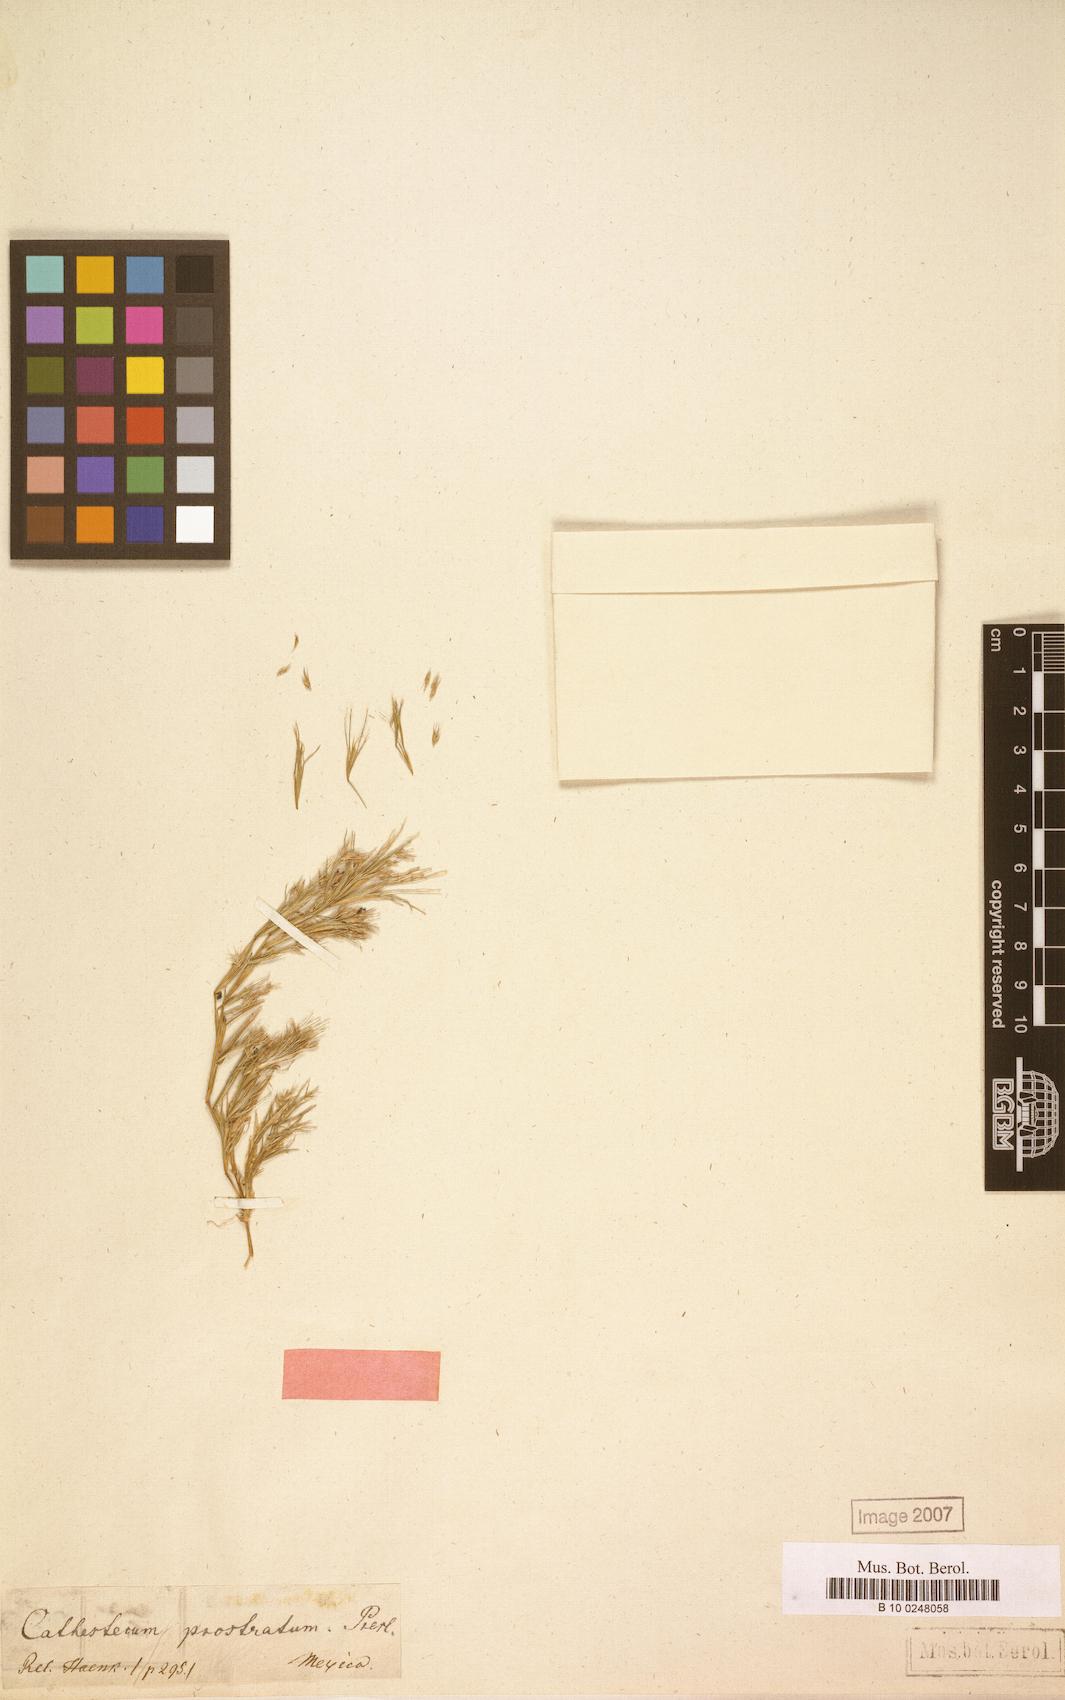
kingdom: Plantae
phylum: Tracheophyta
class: Liliopsida
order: Poales
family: Poaceae
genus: Bouteloua
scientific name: Bouteloua griffithsii
